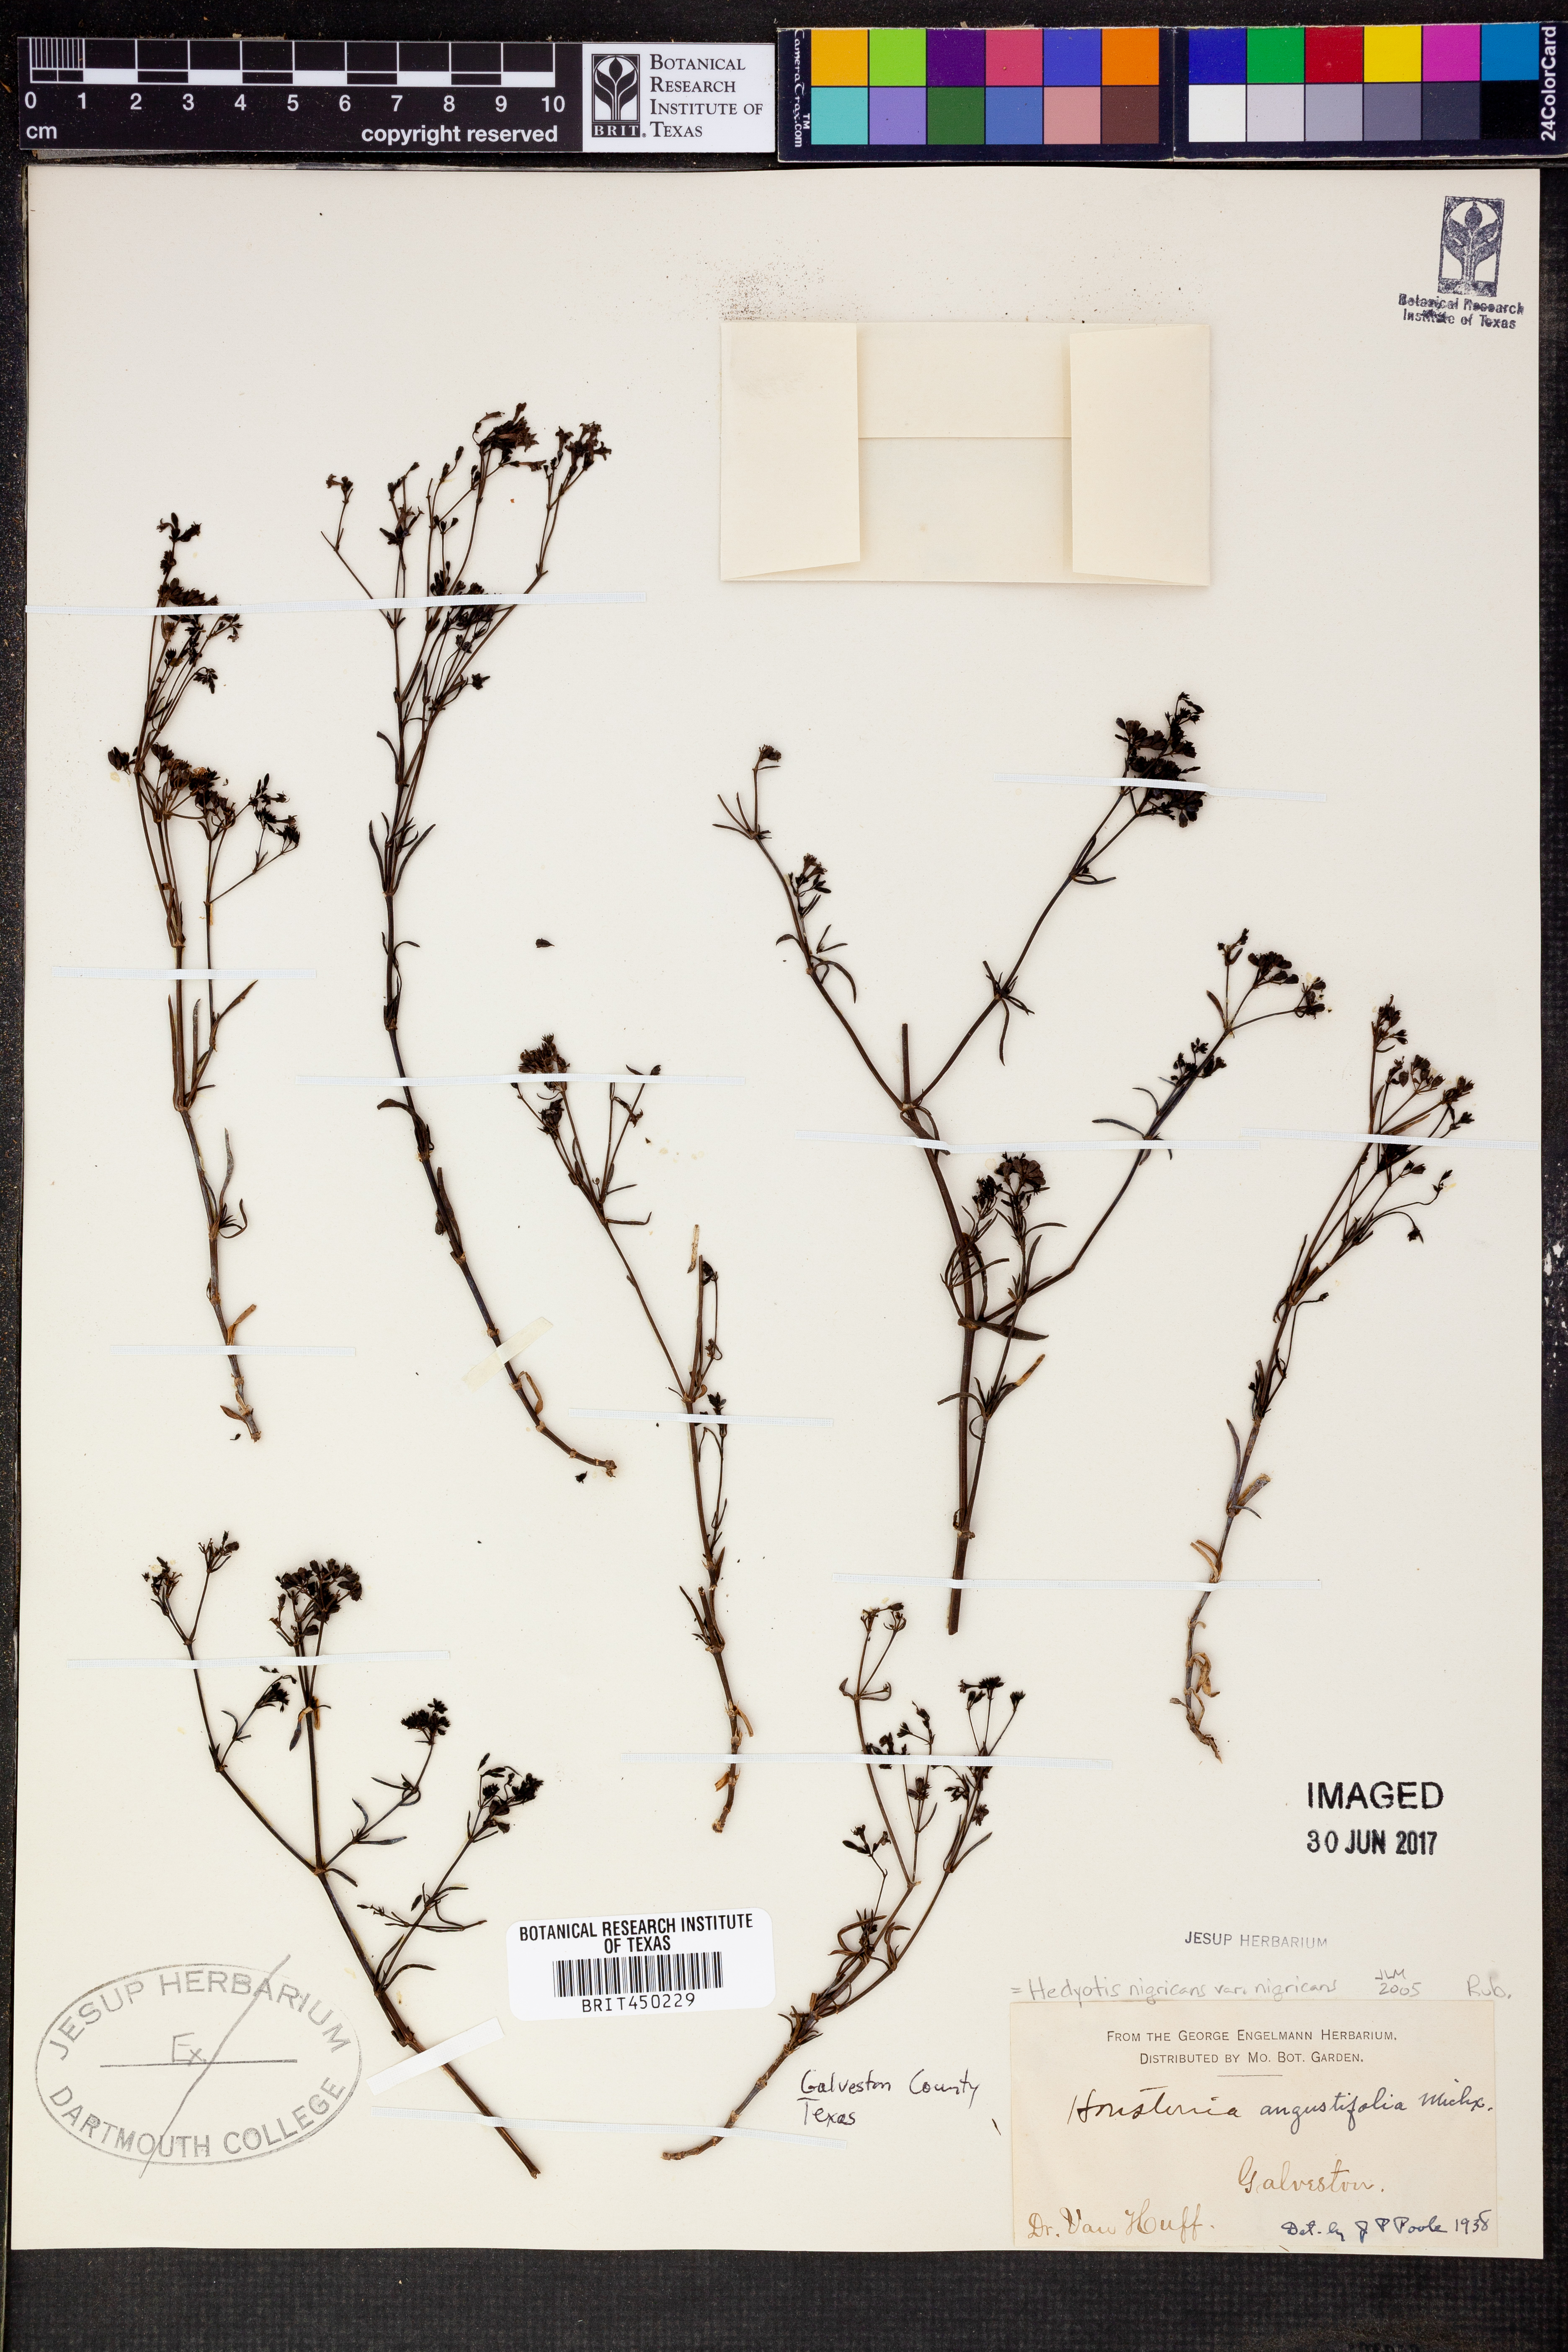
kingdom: Plantae
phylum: Tracheophyta
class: Magnoliopsida
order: Gentianales
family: Rubiaceae
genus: Stenaria
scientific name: Stenaria nigricans
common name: Diamondflowers
